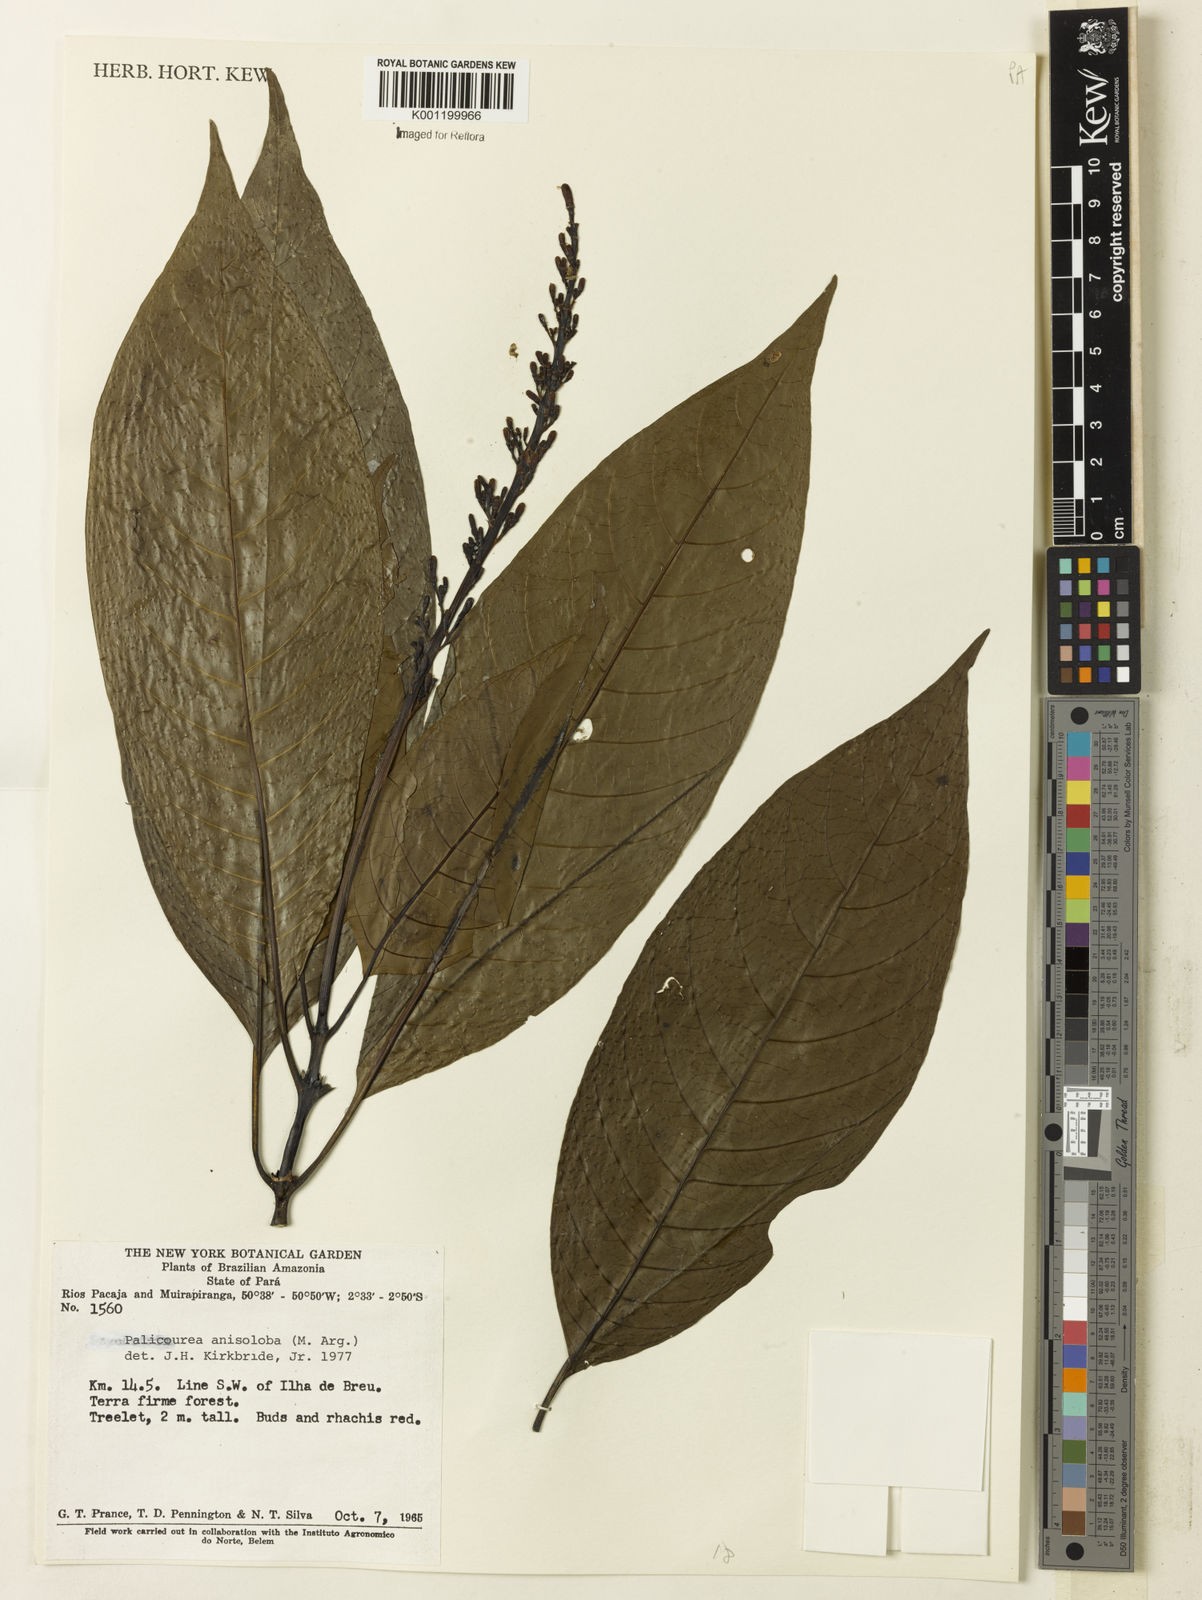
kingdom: Plantae
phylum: Tracheophyta
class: Magnoliopsida
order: Gentianales
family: Rubiaceae
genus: Palicourea
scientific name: Palicourea
